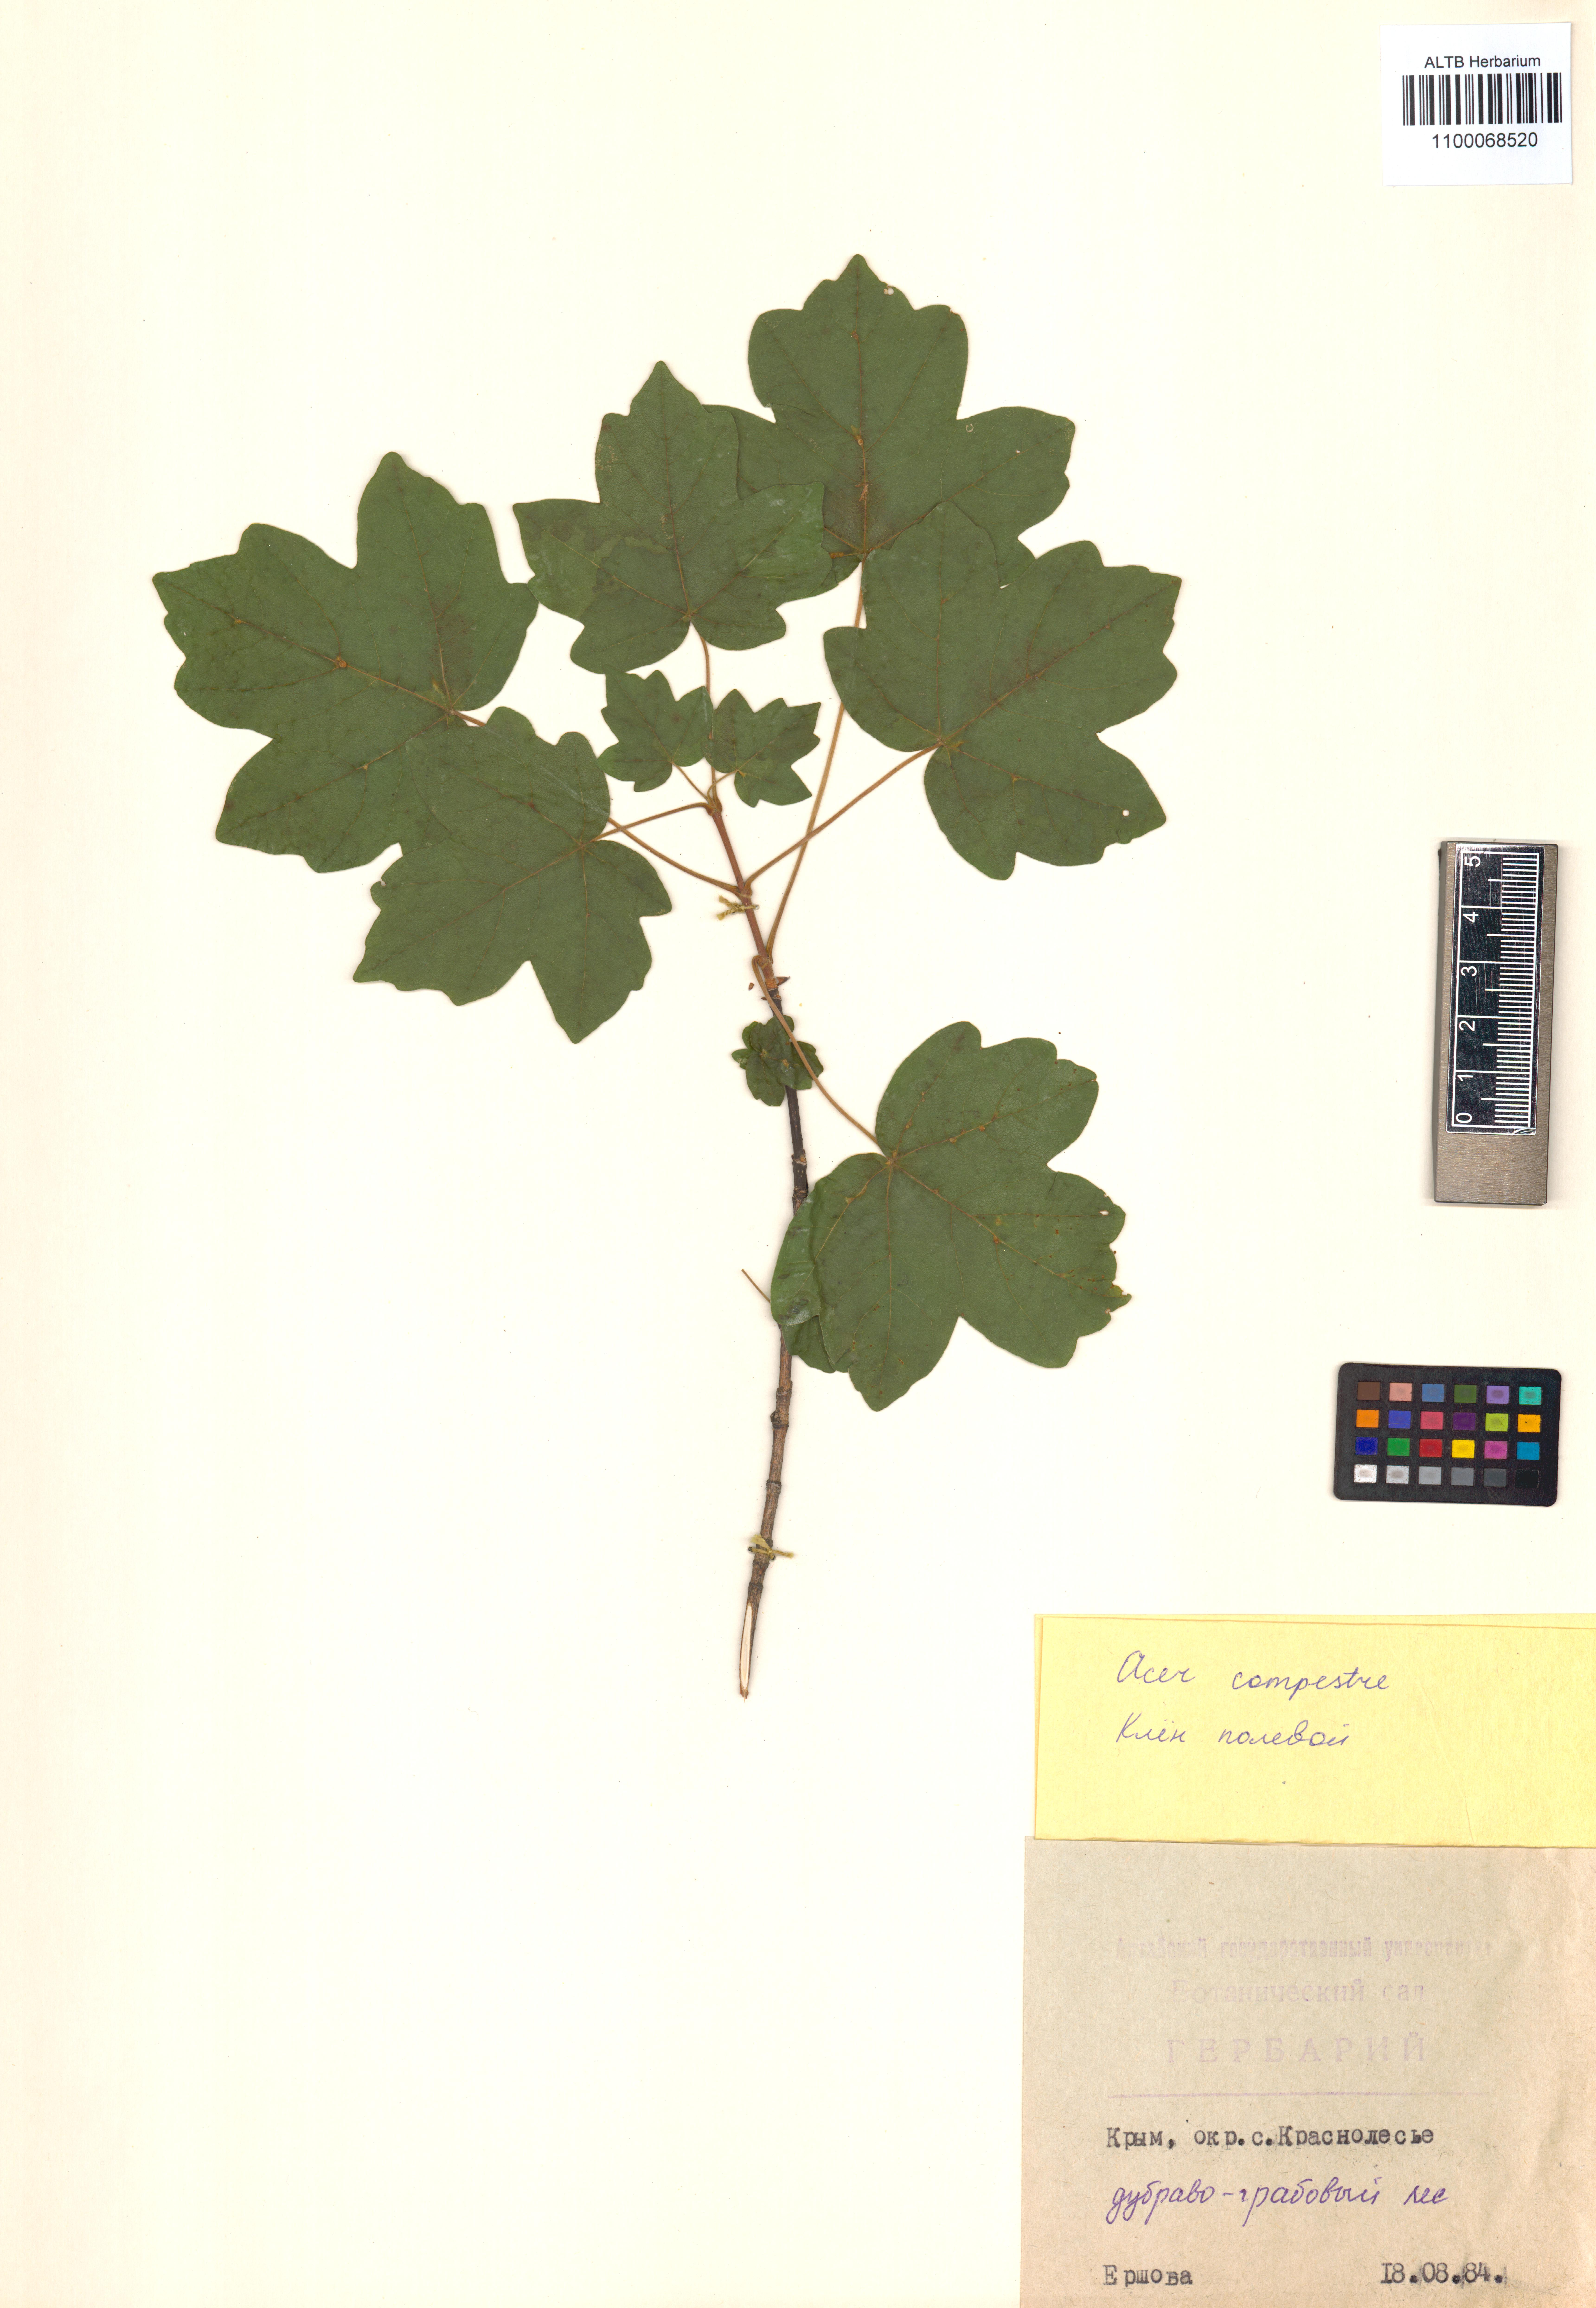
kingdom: Plantae
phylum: Tracheophyta
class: Magnoliopsida
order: Sapindales
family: Sapindaceae
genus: Acer
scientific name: Acer campestre
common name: Field maple
